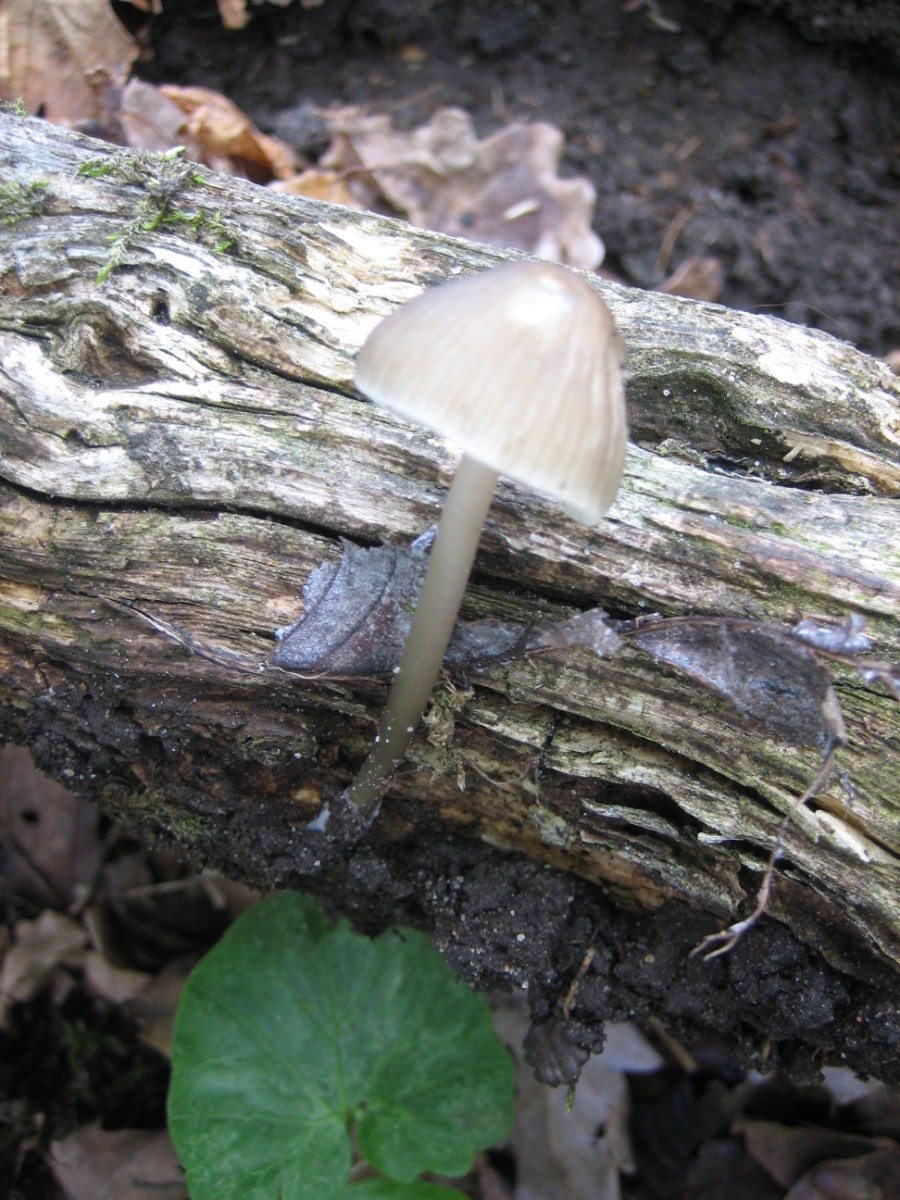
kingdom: Fungi
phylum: Basidiomycota
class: Agaricomycetes
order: Agaricales
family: Mycenaceae
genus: Mycena
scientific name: Mycena galericulata
